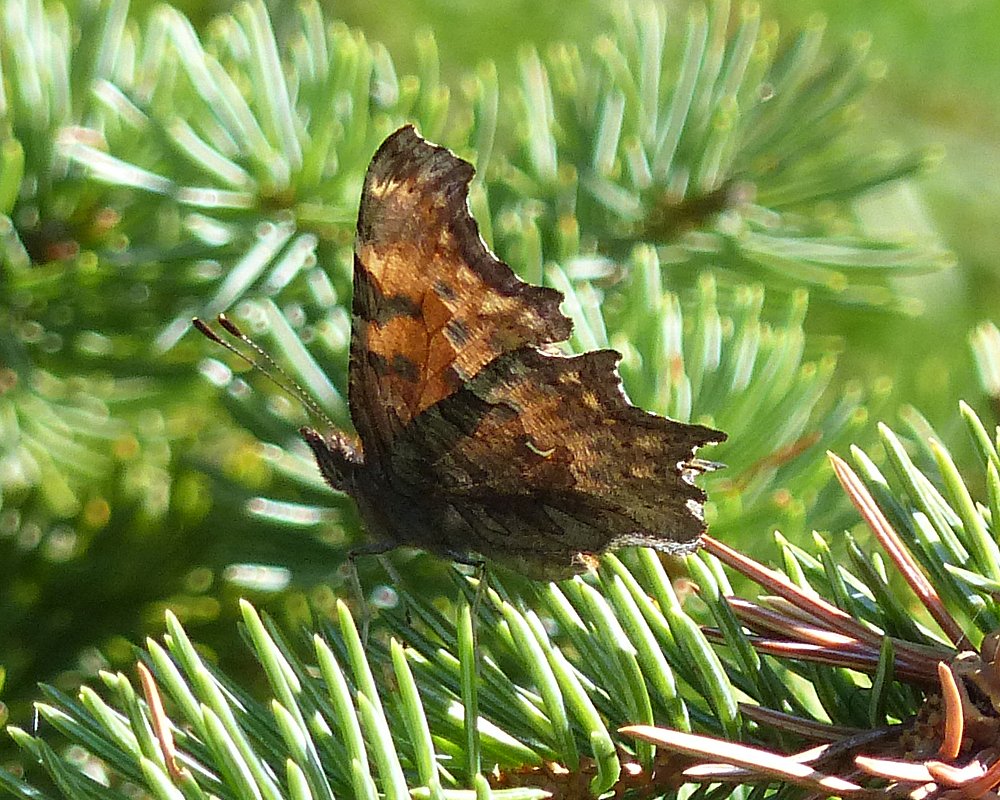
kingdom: Animalia
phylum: Arthropoda
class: Insecta
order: Lepidoptera
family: Nymphalidae
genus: Polygonia
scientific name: Polygonia satyrus
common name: Satyr Comma
